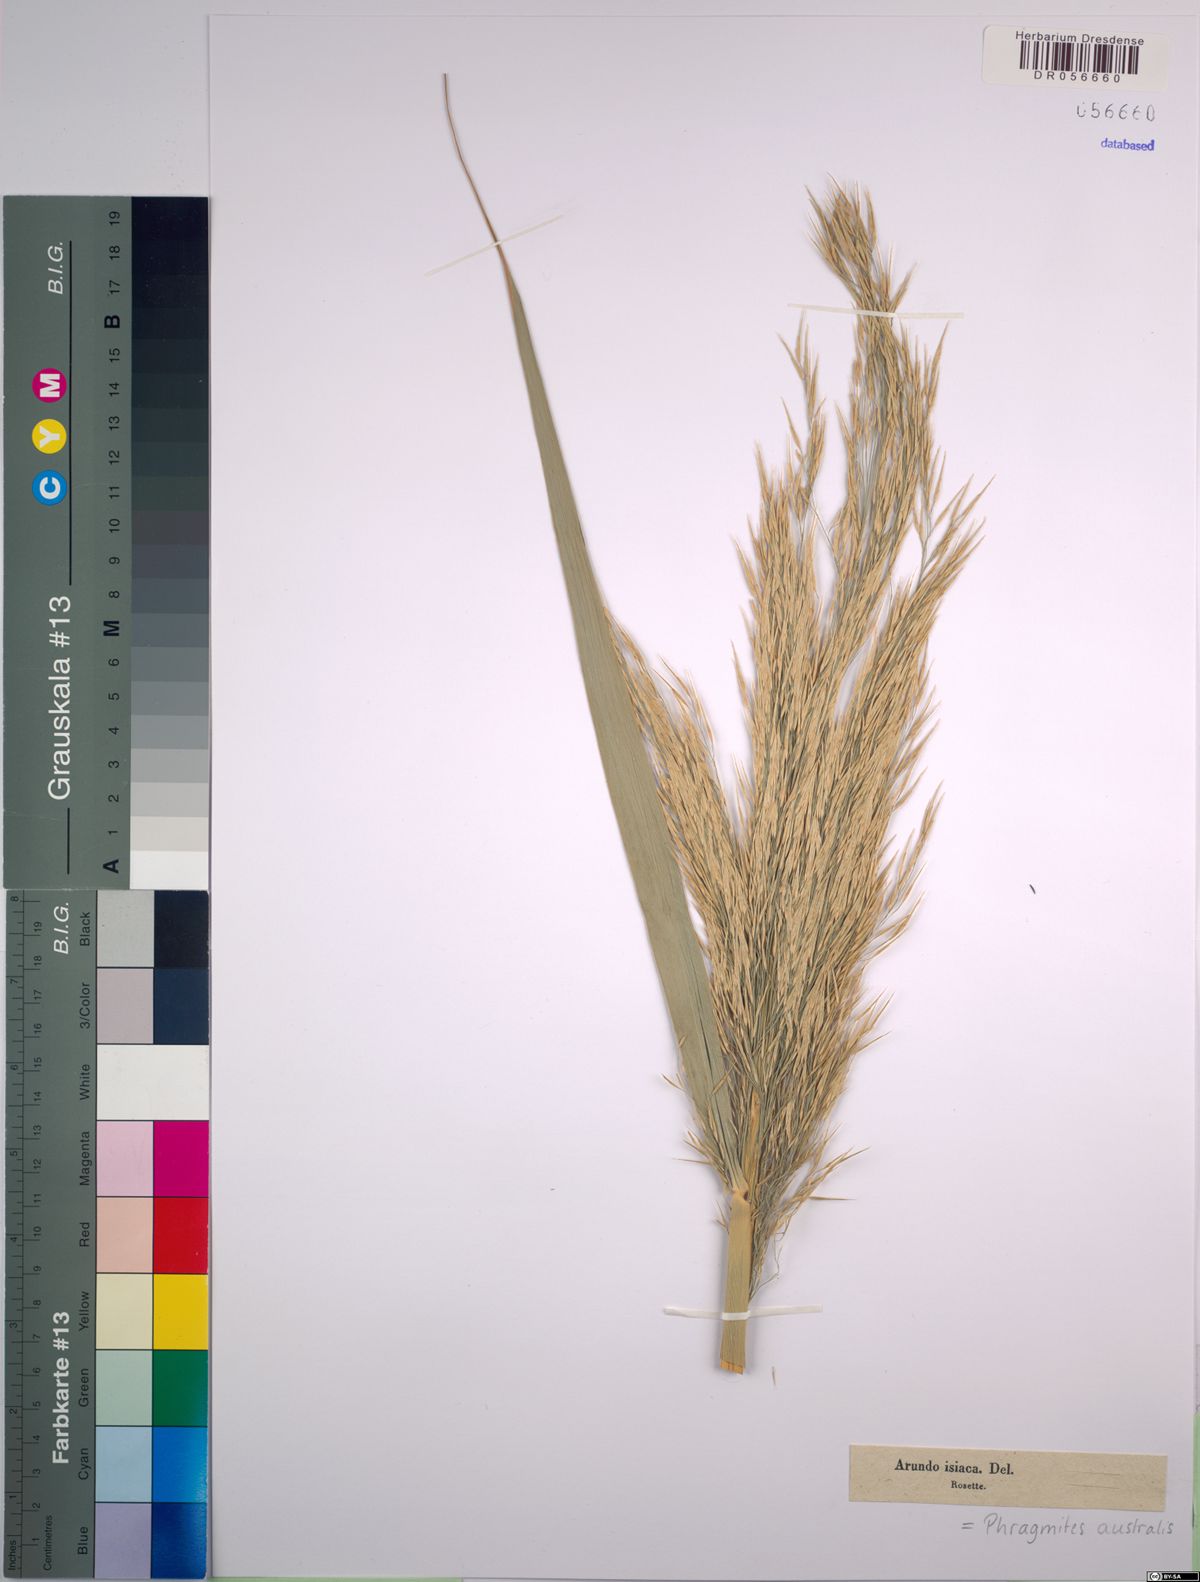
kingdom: Plantae
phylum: Tracheophyta
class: Liliopsida
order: Poales
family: Poaceae
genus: Phragmites
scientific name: Phragmites australis
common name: Common reed
